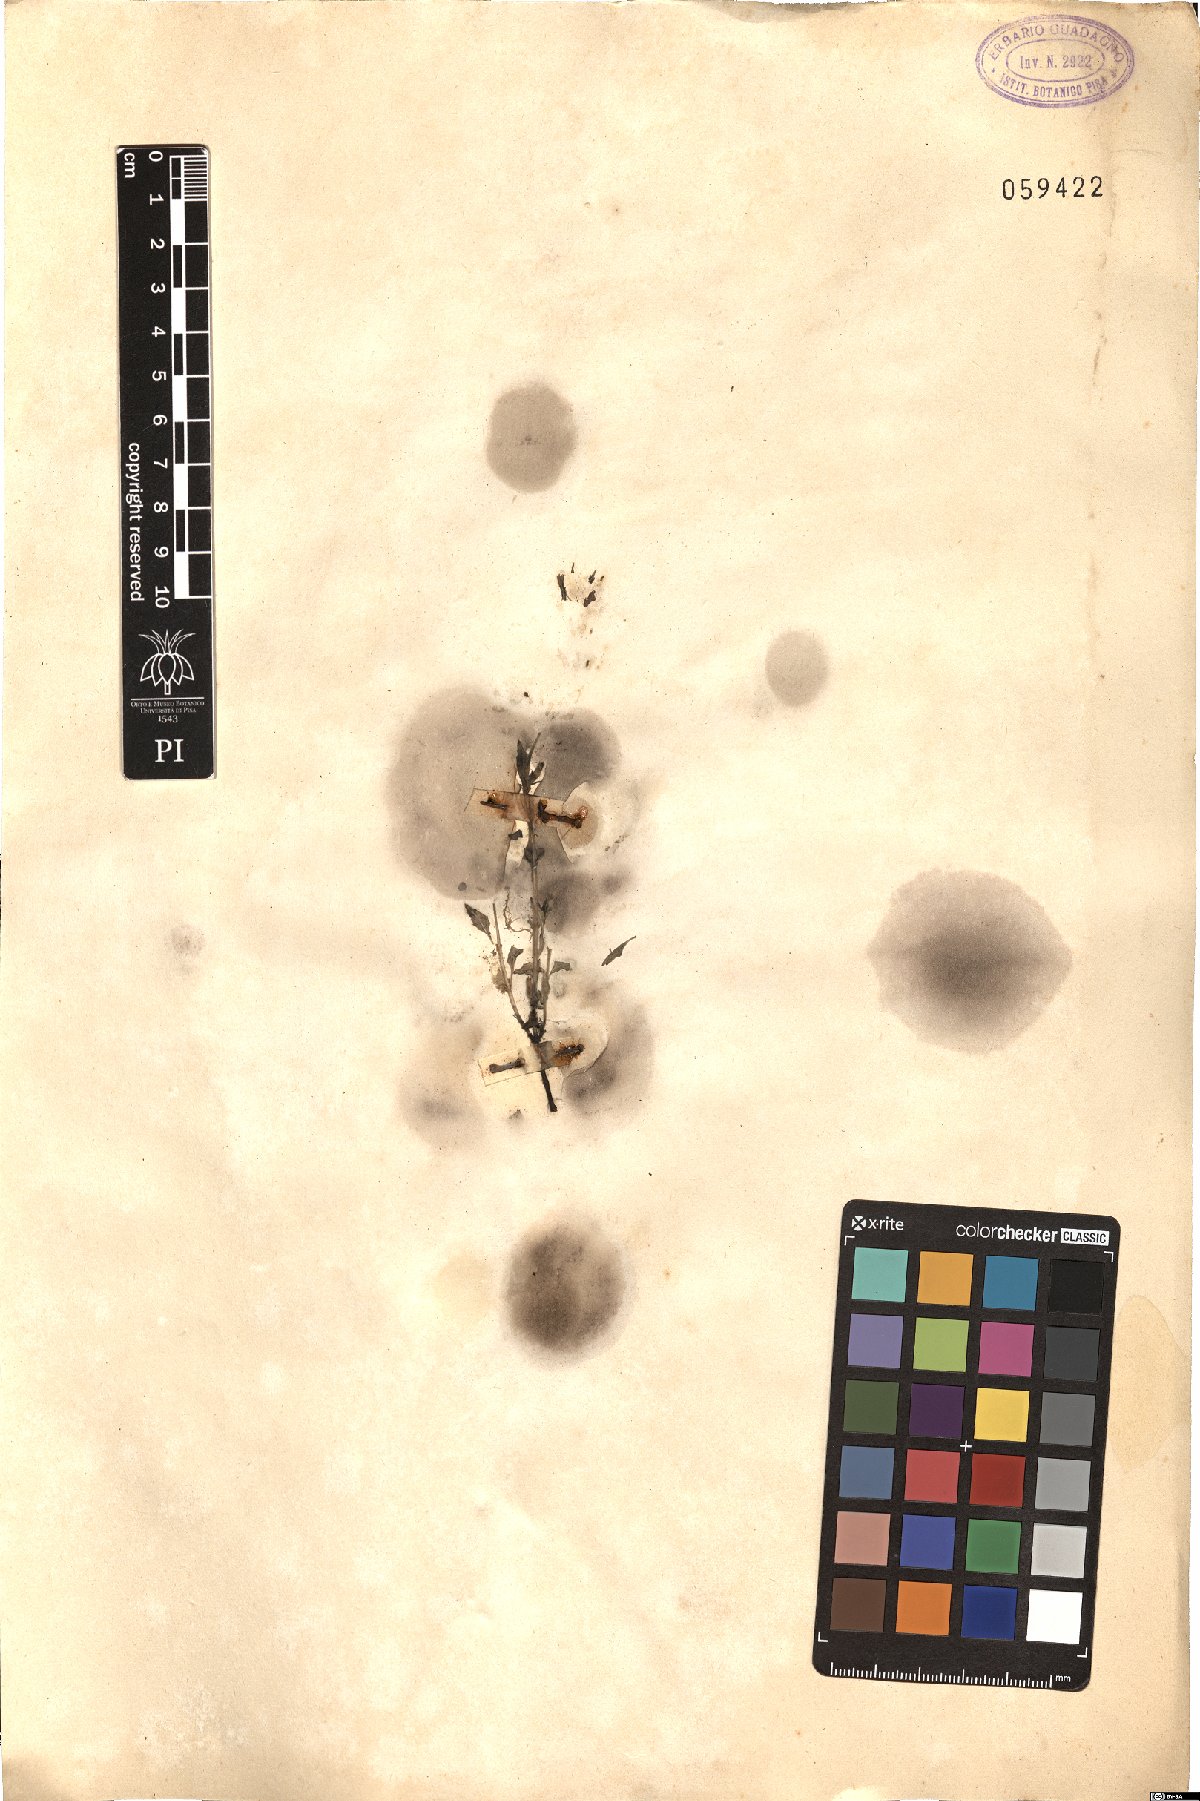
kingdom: Plantae
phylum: Tracheophyta
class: Magnoliopsida
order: Lamiales
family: Lamiaceae
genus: Clinopodium
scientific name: Clinopodium menthifolium
